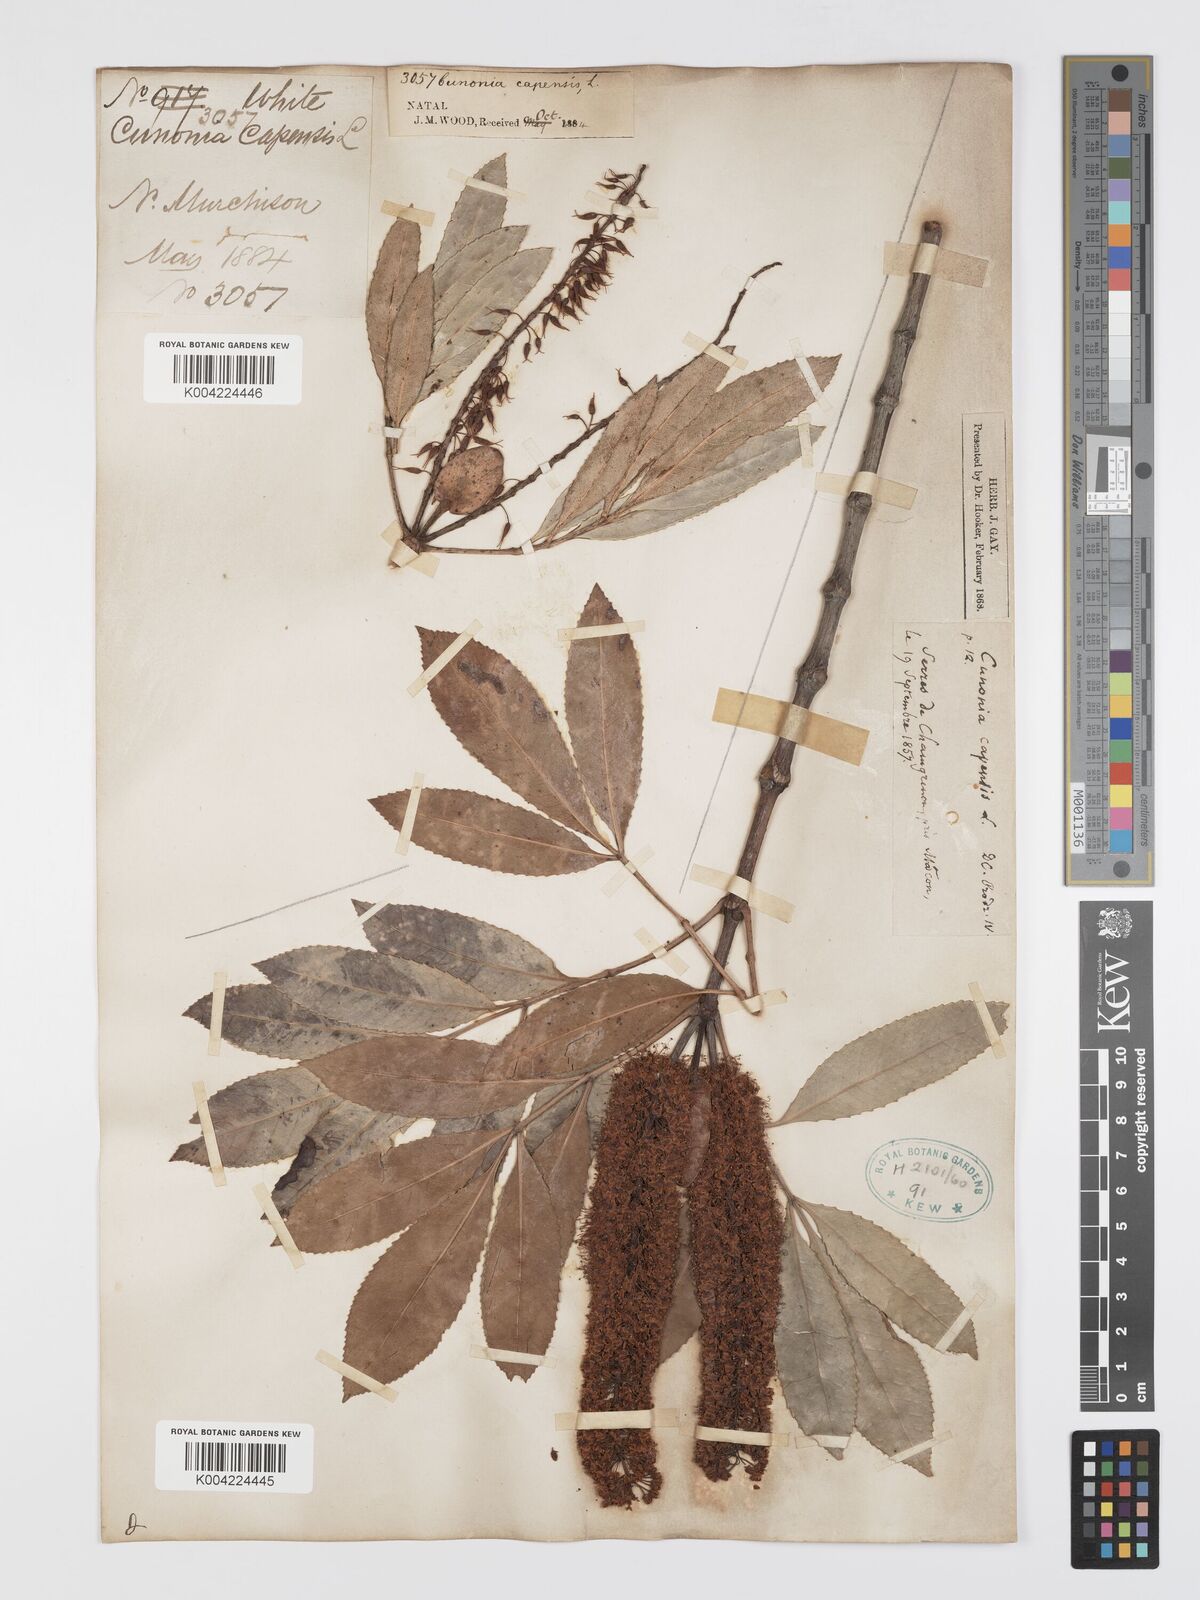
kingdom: Plantae
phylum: Tracheophyta
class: Magnoliopsida
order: Oxalidales
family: Cunoniaceae
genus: Cunonia
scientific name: Cunonia capensis
